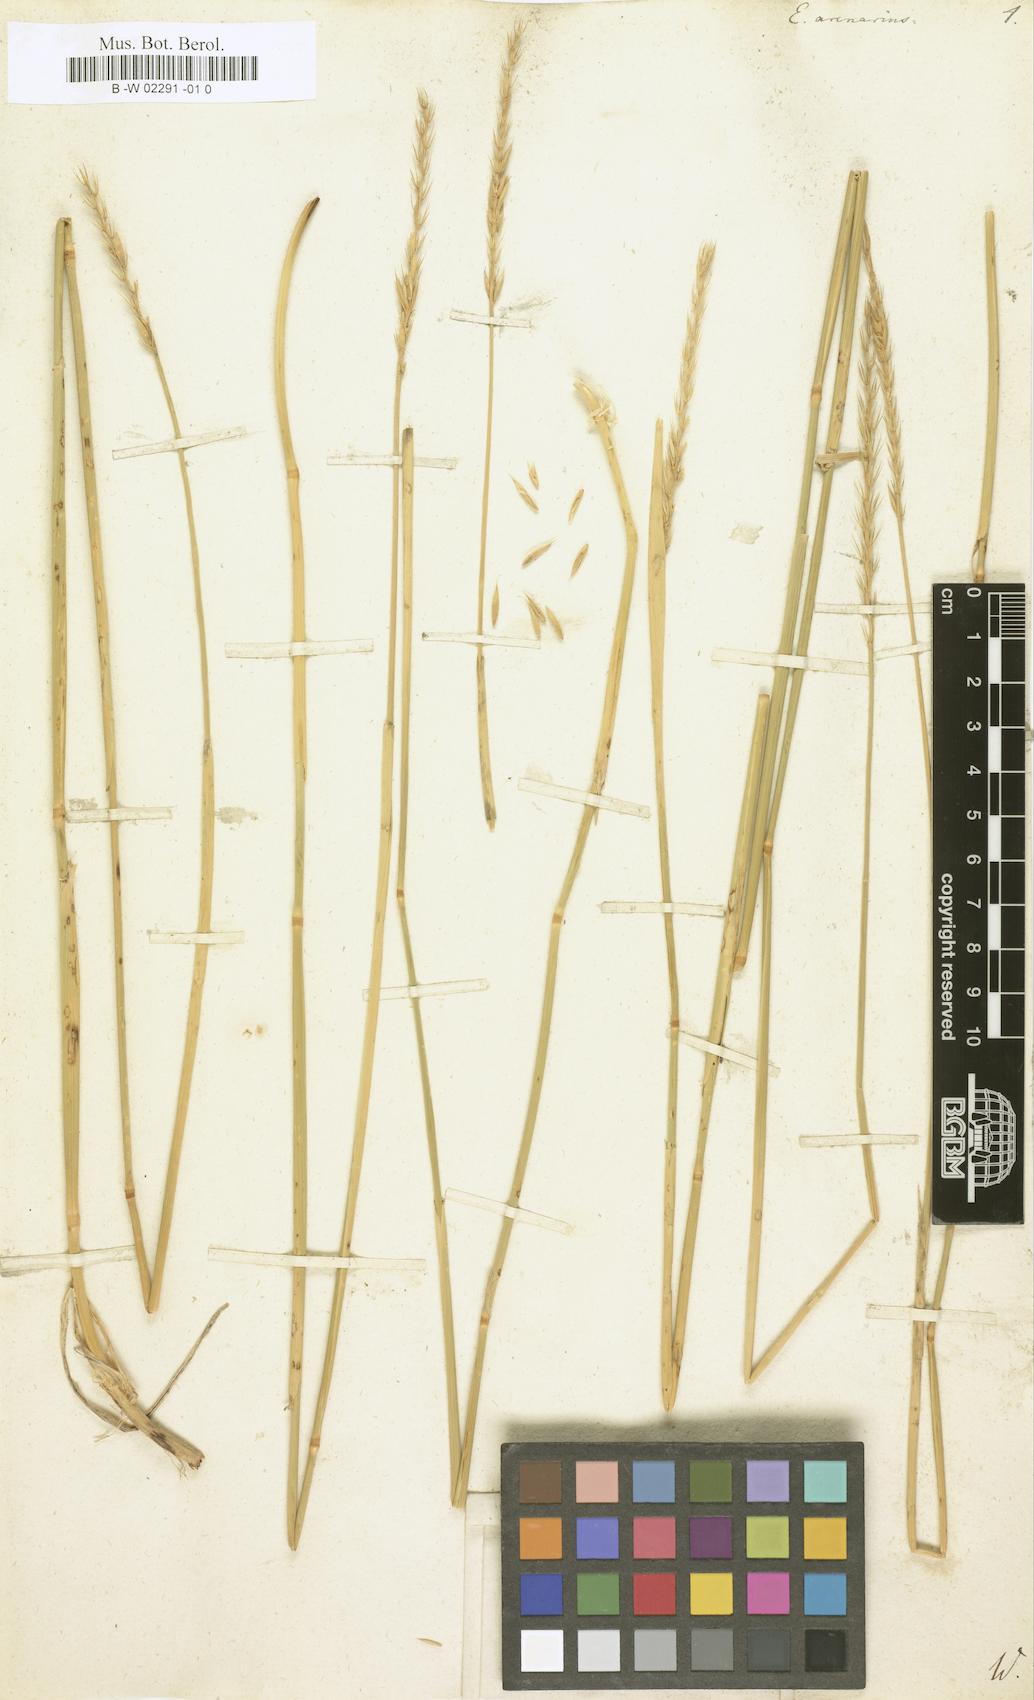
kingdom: Plantae
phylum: Tracheophyta
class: Liliopsida
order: Poales
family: Poaceae
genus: Elymus
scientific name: Elymus arenarius
